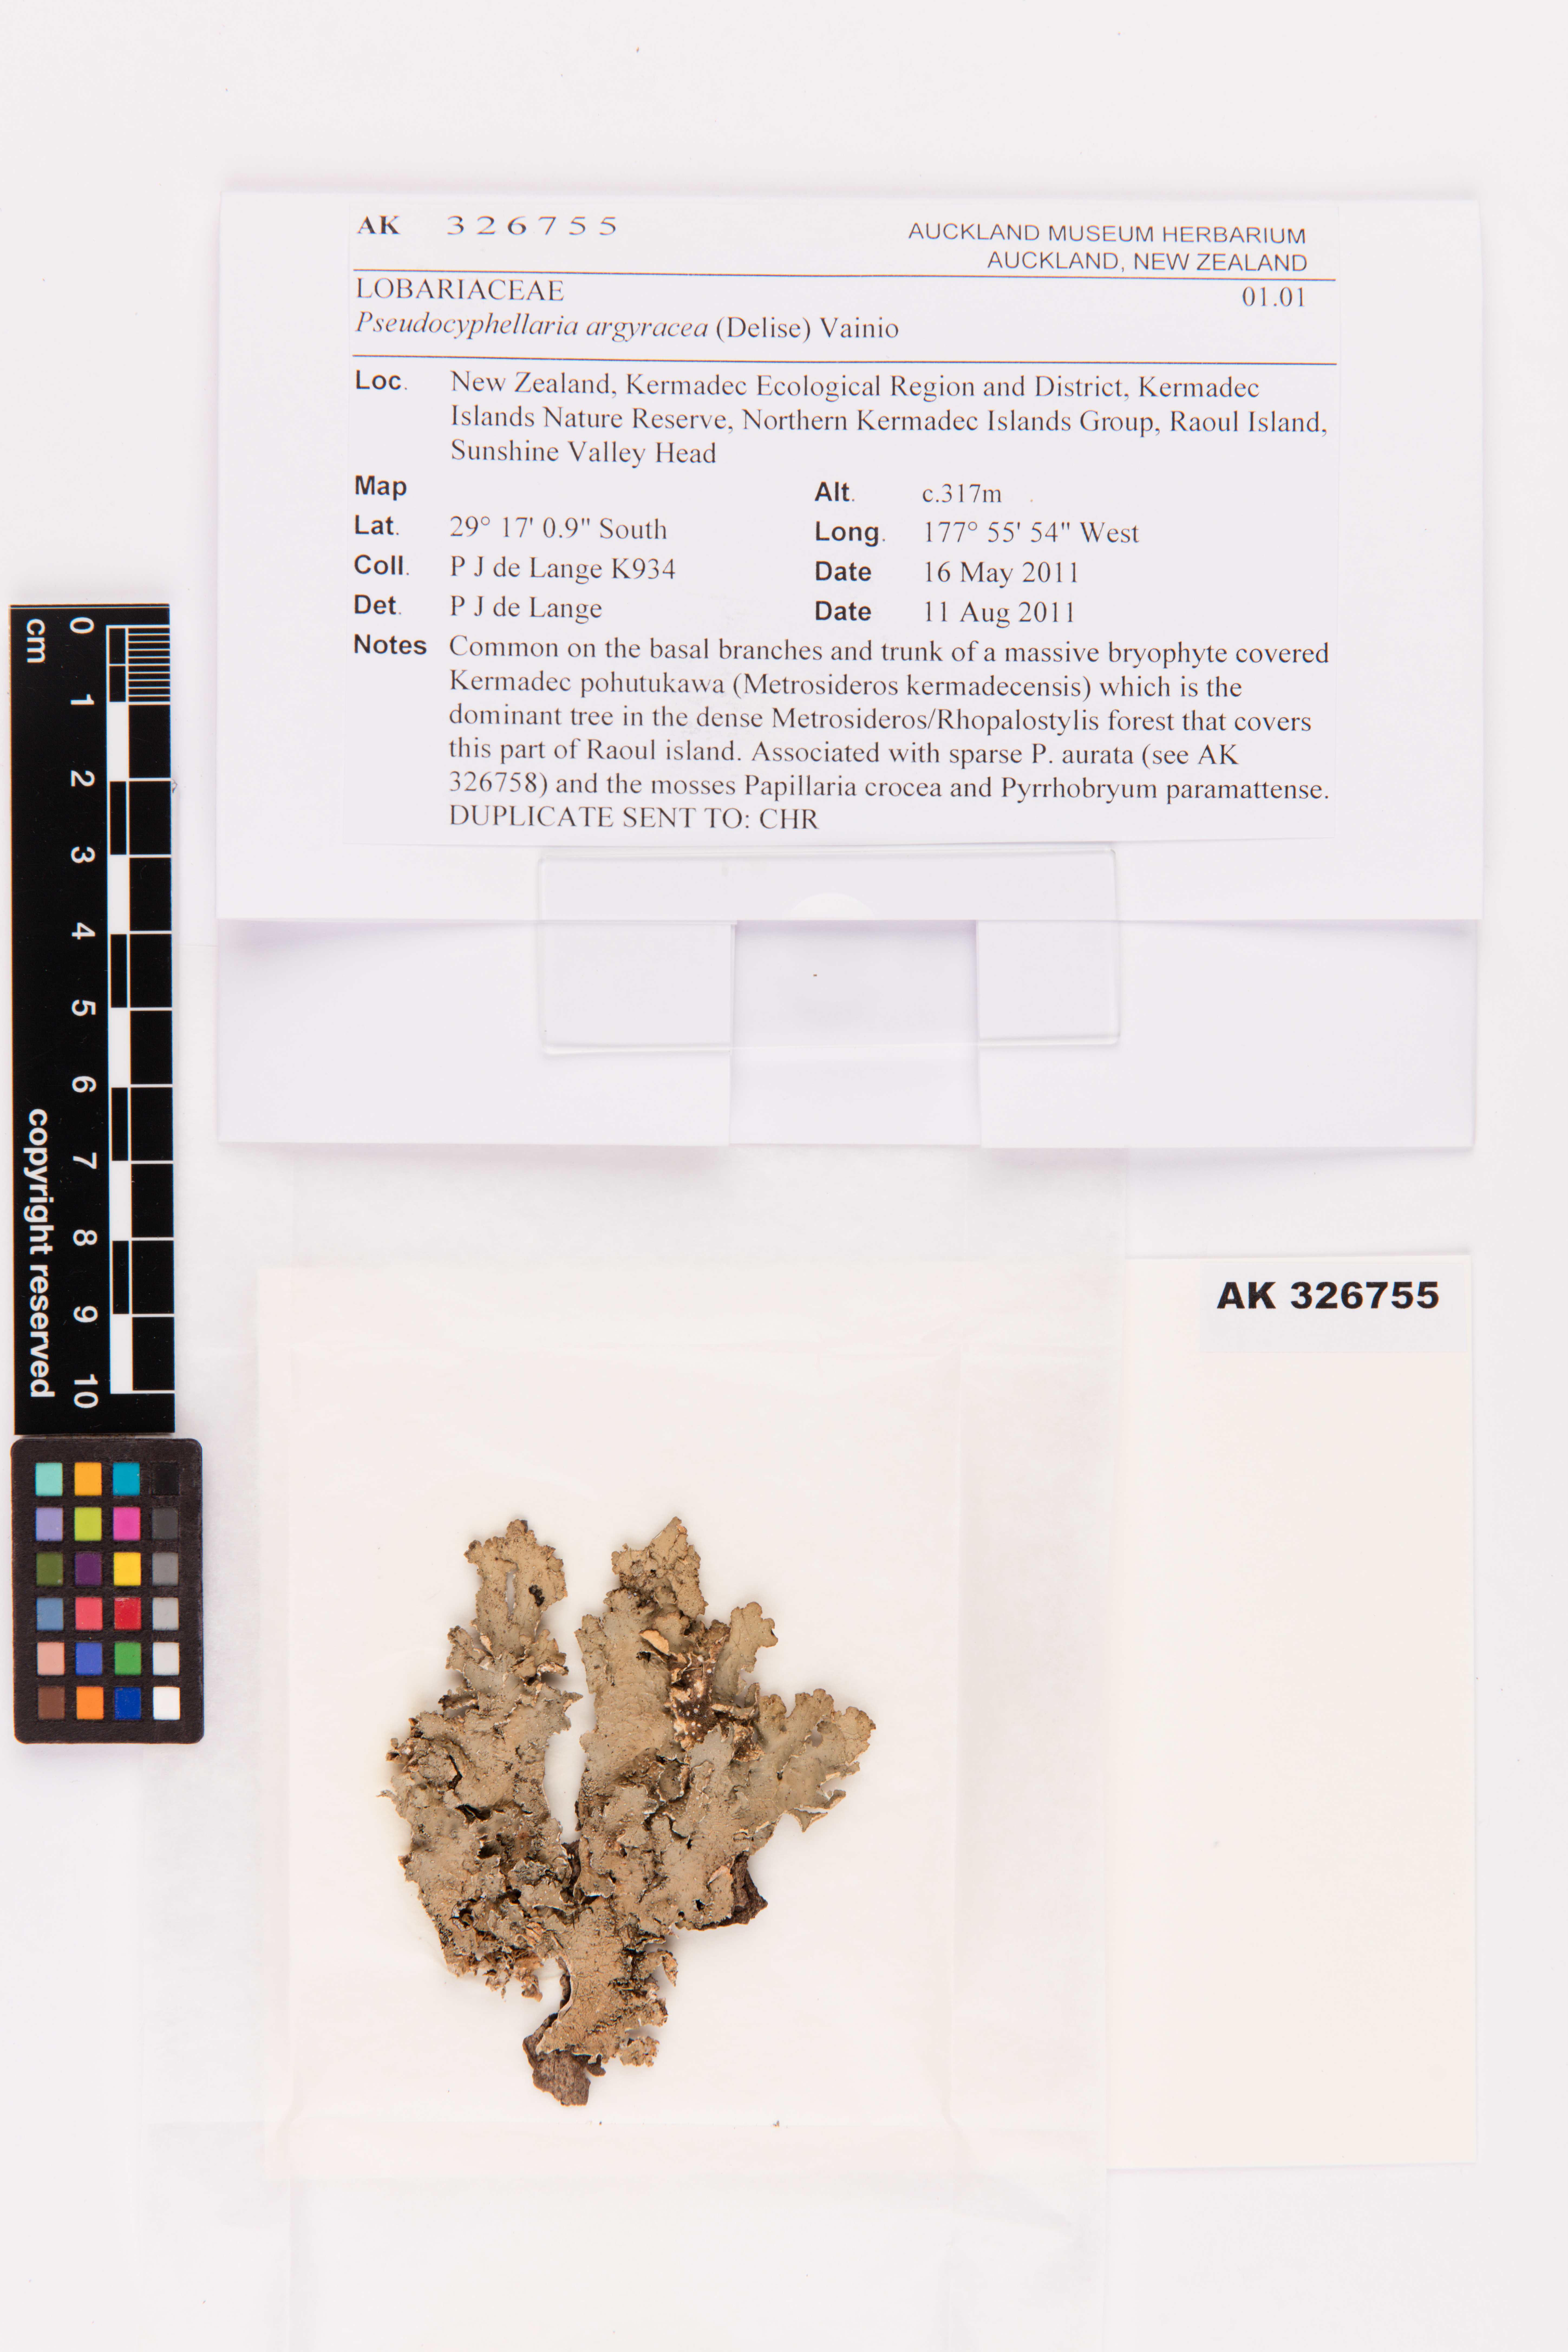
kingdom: Fungi
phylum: Ascomycota
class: Lecanoromycetes
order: Peltigerales
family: Lobariaceae
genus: Pseudocyphellaria
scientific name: Pseudocyphellaria argyracea
